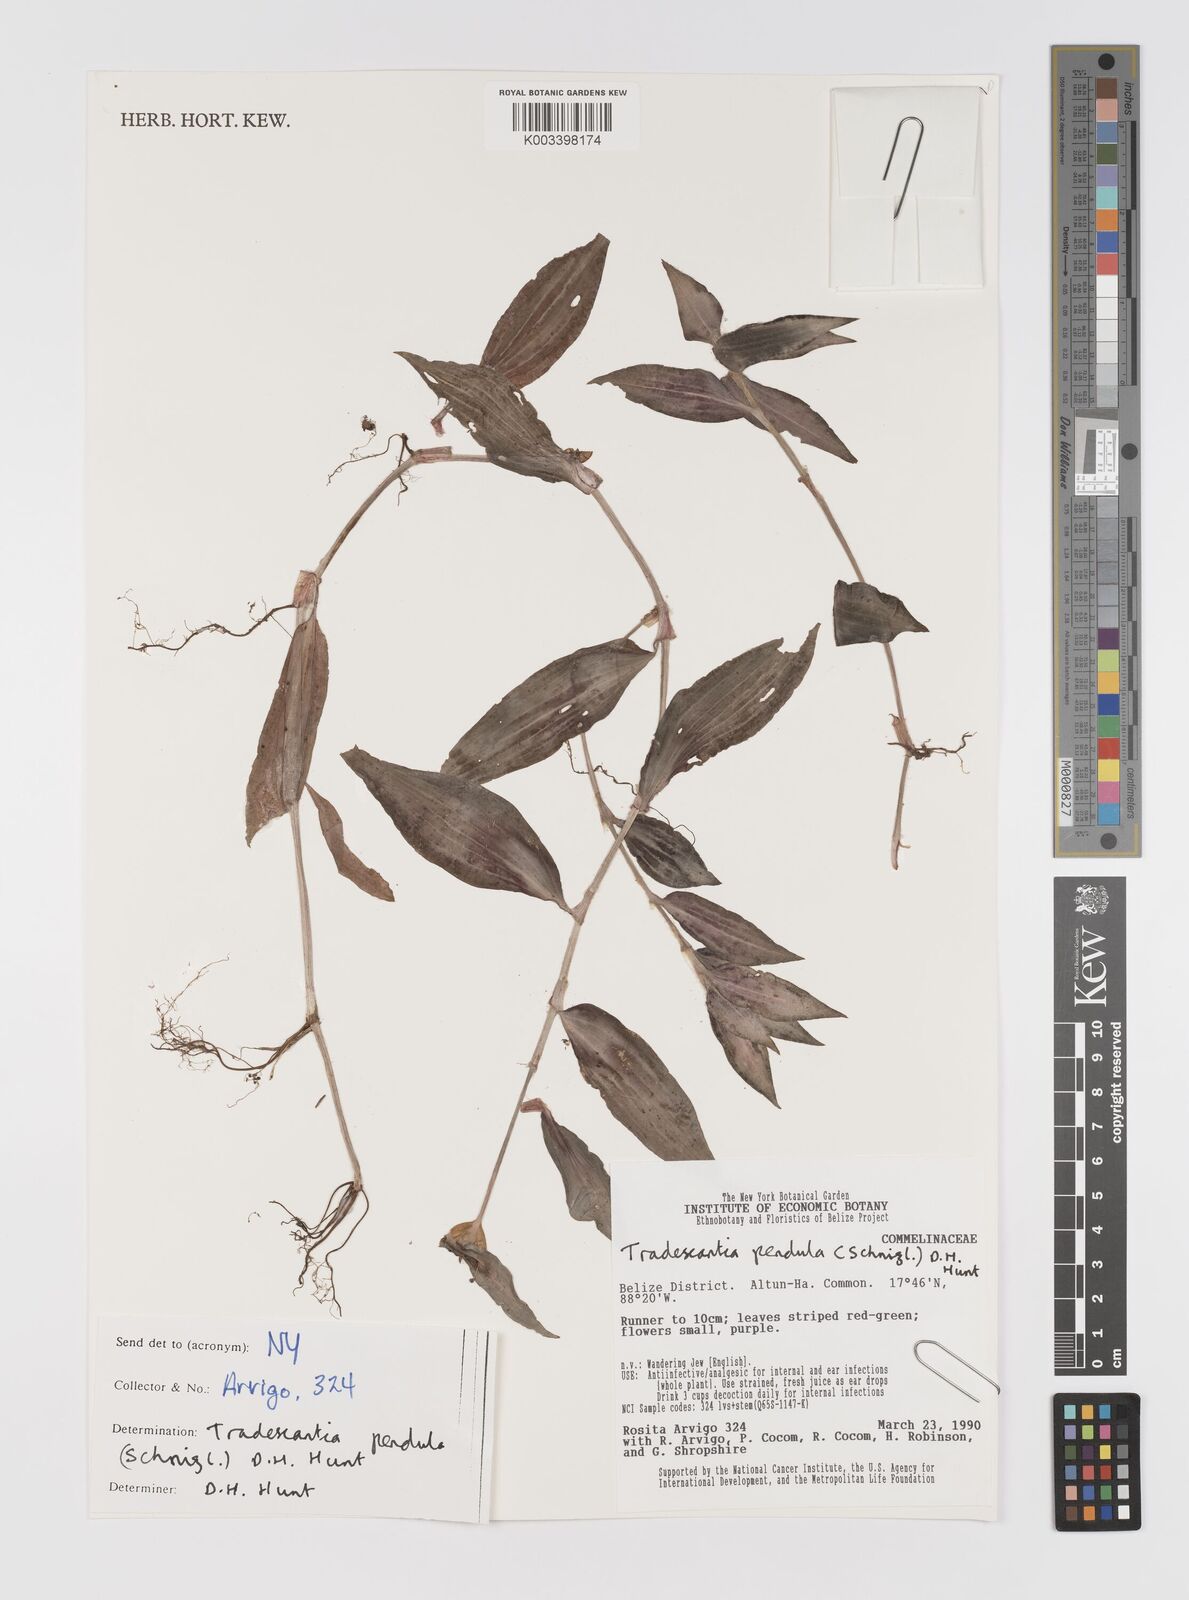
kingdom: Plantae
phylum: Tracheophyta
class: Liliopsida
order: Commelinales
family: Commelinaceae
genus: Tradescantia
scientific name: Tradescantia zebrina
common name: Inchplant
